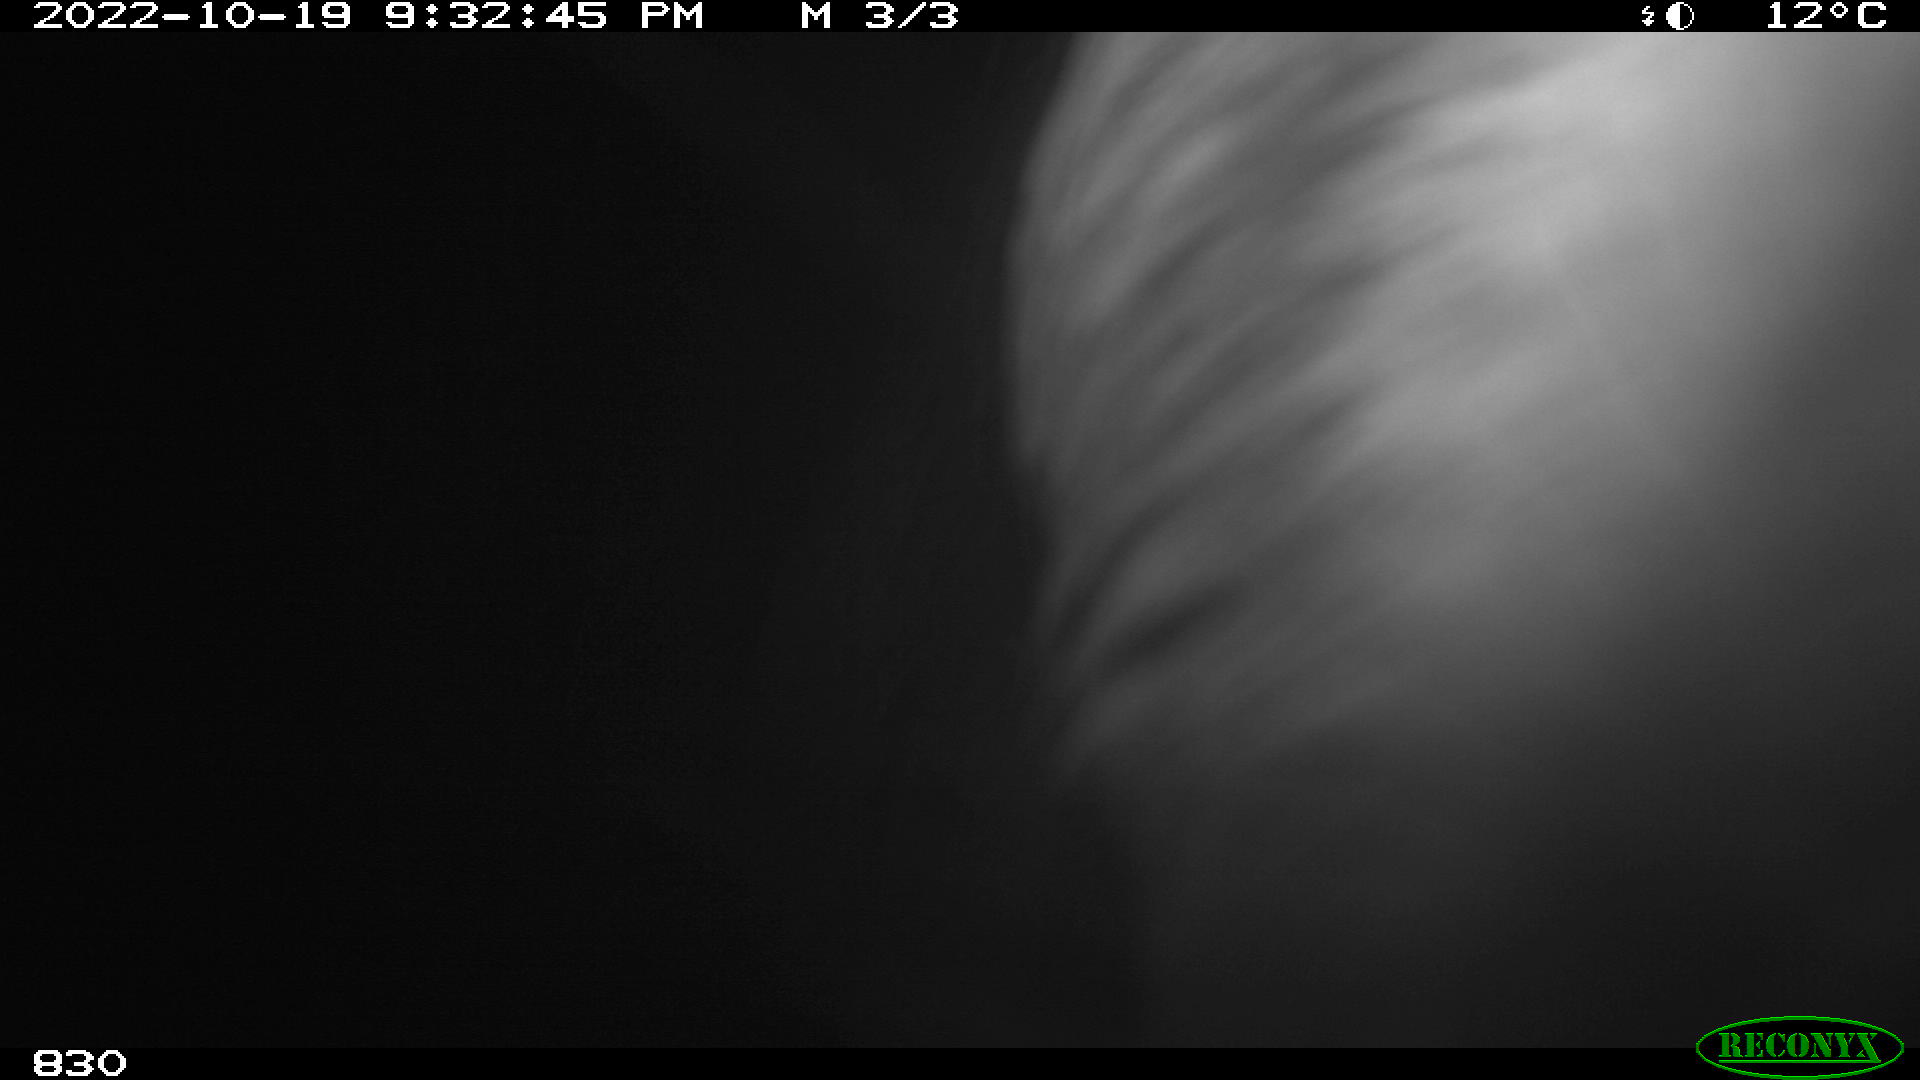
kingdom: Animalia
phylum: Chordata
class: Mammalia
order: Perissodactyla
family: Equidae
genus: Equus
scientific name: Equus caballus
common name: Horse
